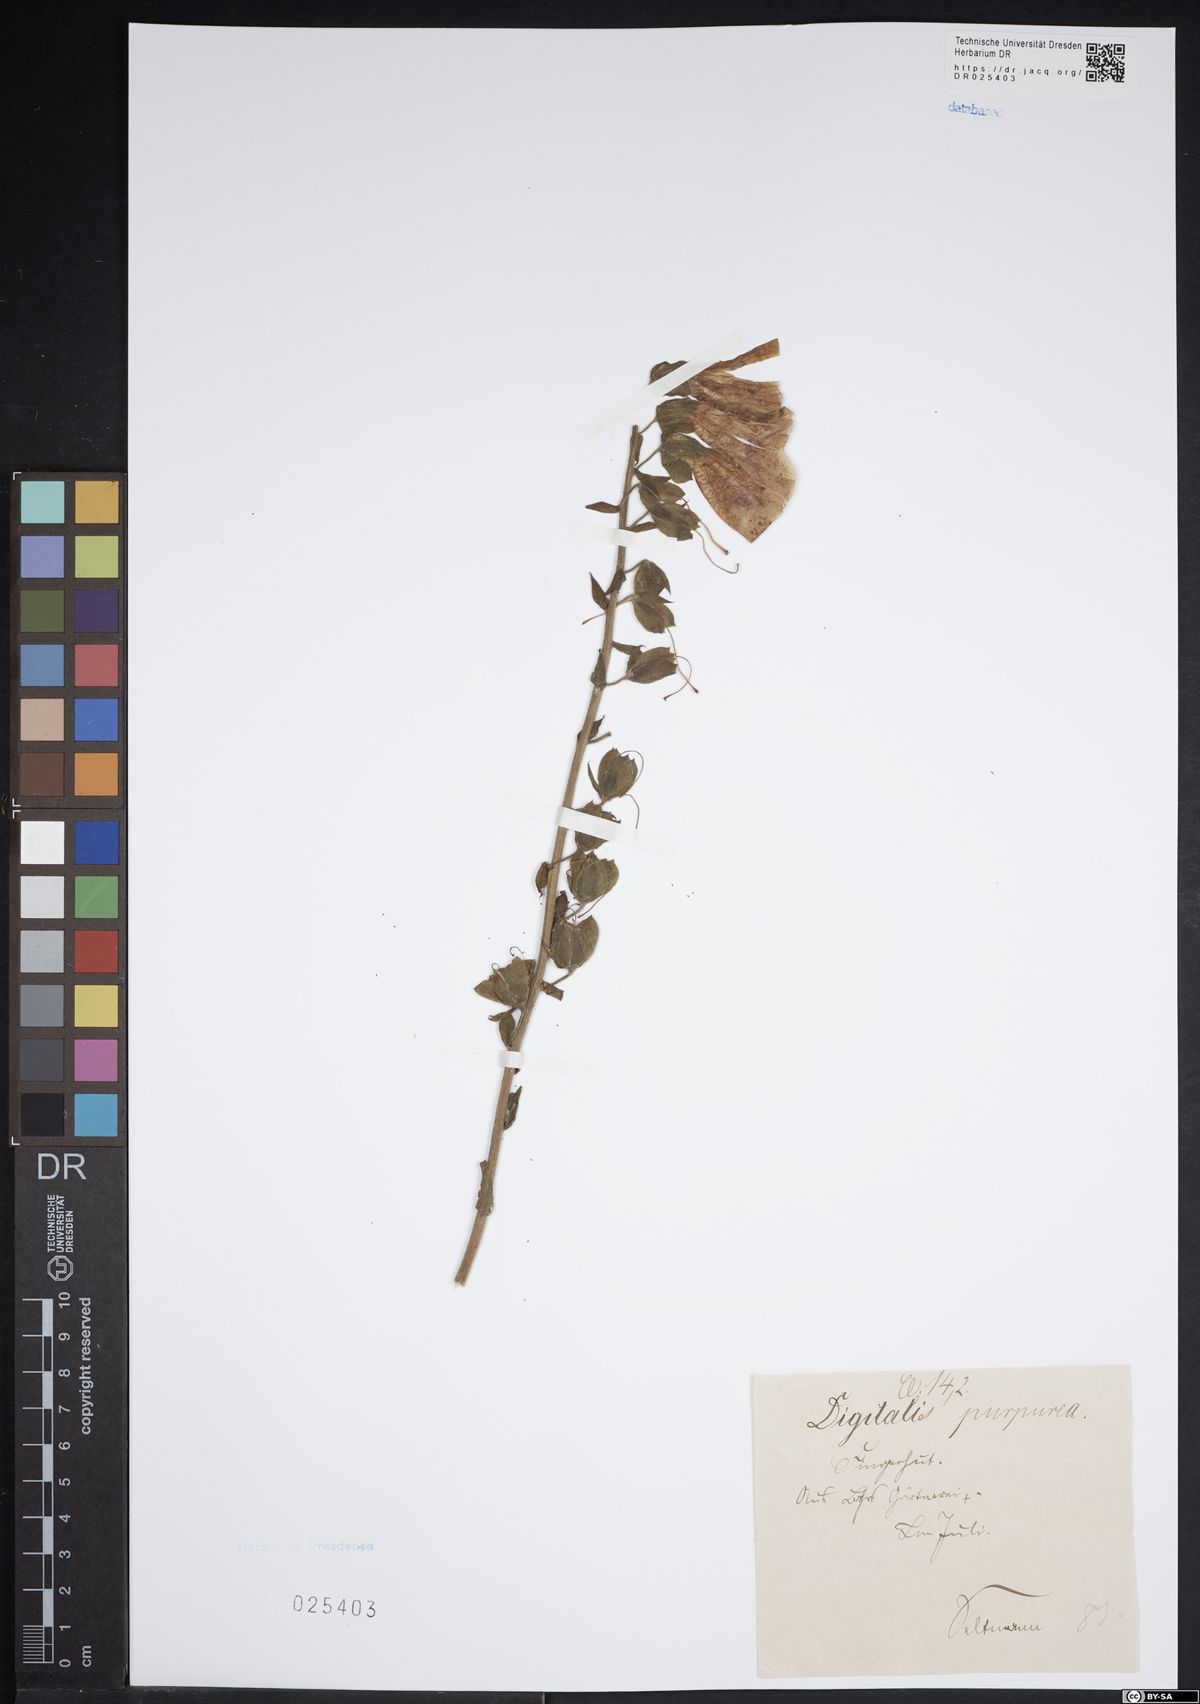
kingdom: Plantae
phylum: Tracheophyta
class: Magnoliopsida
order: Lamiales
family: Plantaginaceae
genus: Digitalis
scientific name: Digitalis purpurea
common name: Foxglove
